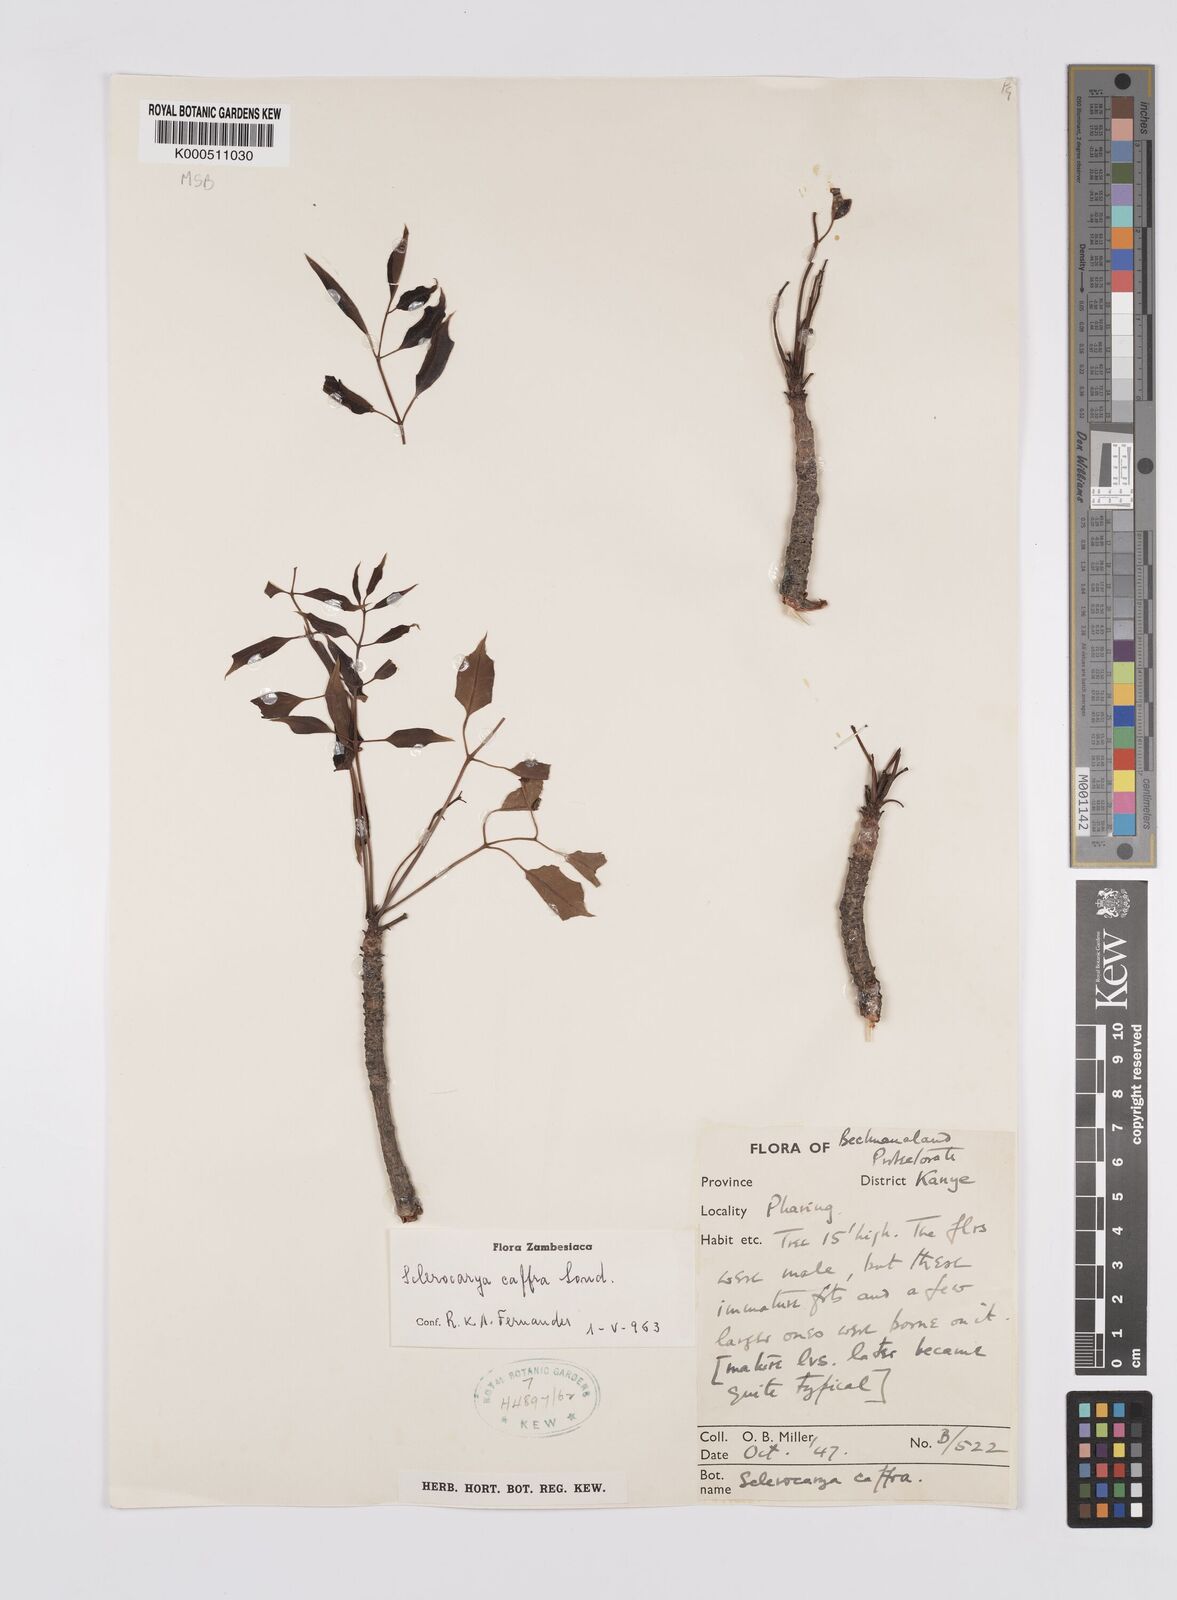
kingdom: Plantae
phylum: Tracheophyta
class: Magnoliopsida
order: Sapindales
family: Anacardiaceae
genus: Sclerocarya
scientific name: Sclerocarya birrea
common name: Marula
